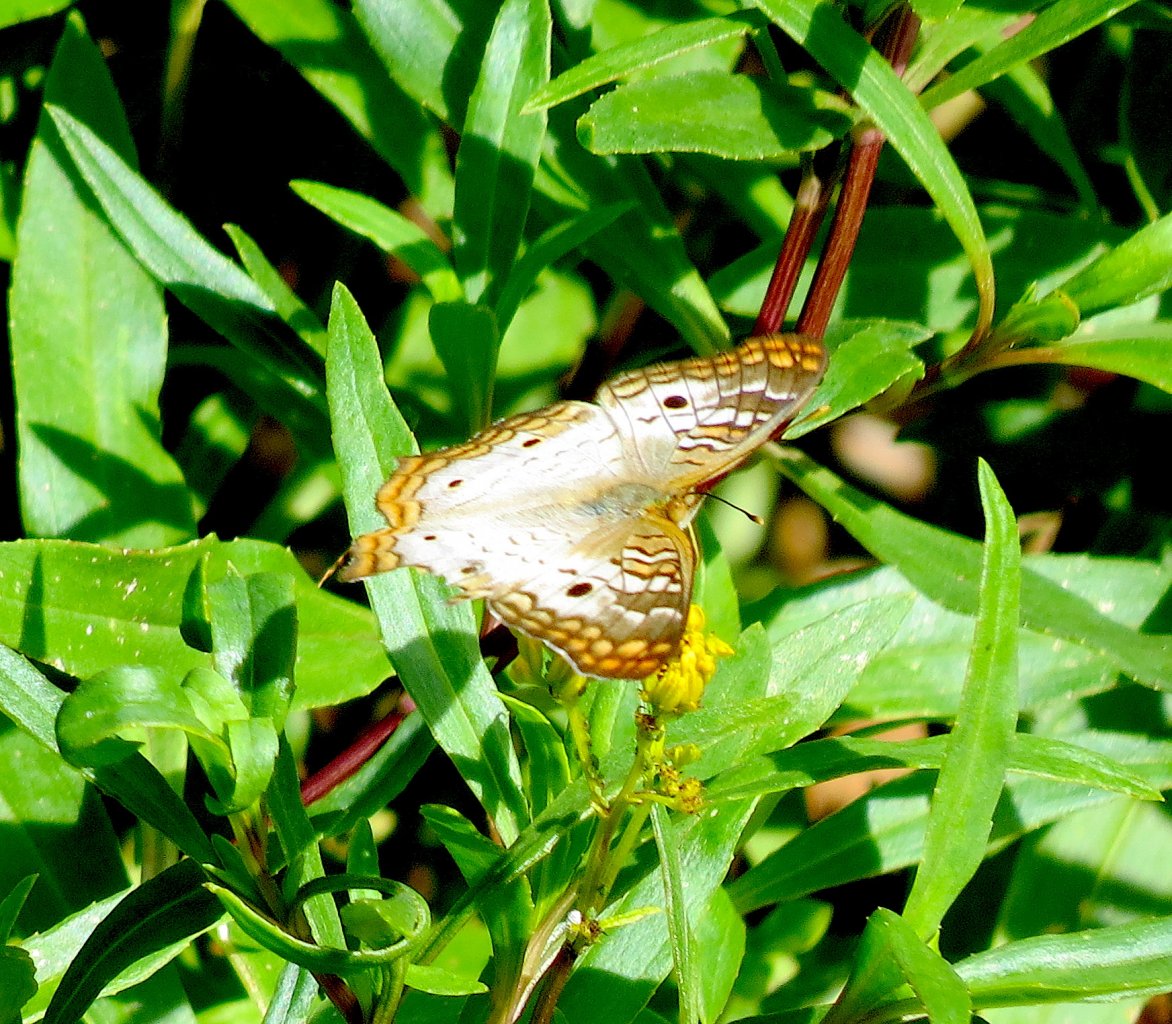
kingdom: Animalia
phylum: Arthropoda
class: Insecta
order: Lepidoptera
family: Nymphalidae
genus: Anartia
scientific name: Anartia jatrophae
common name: White Peacock
